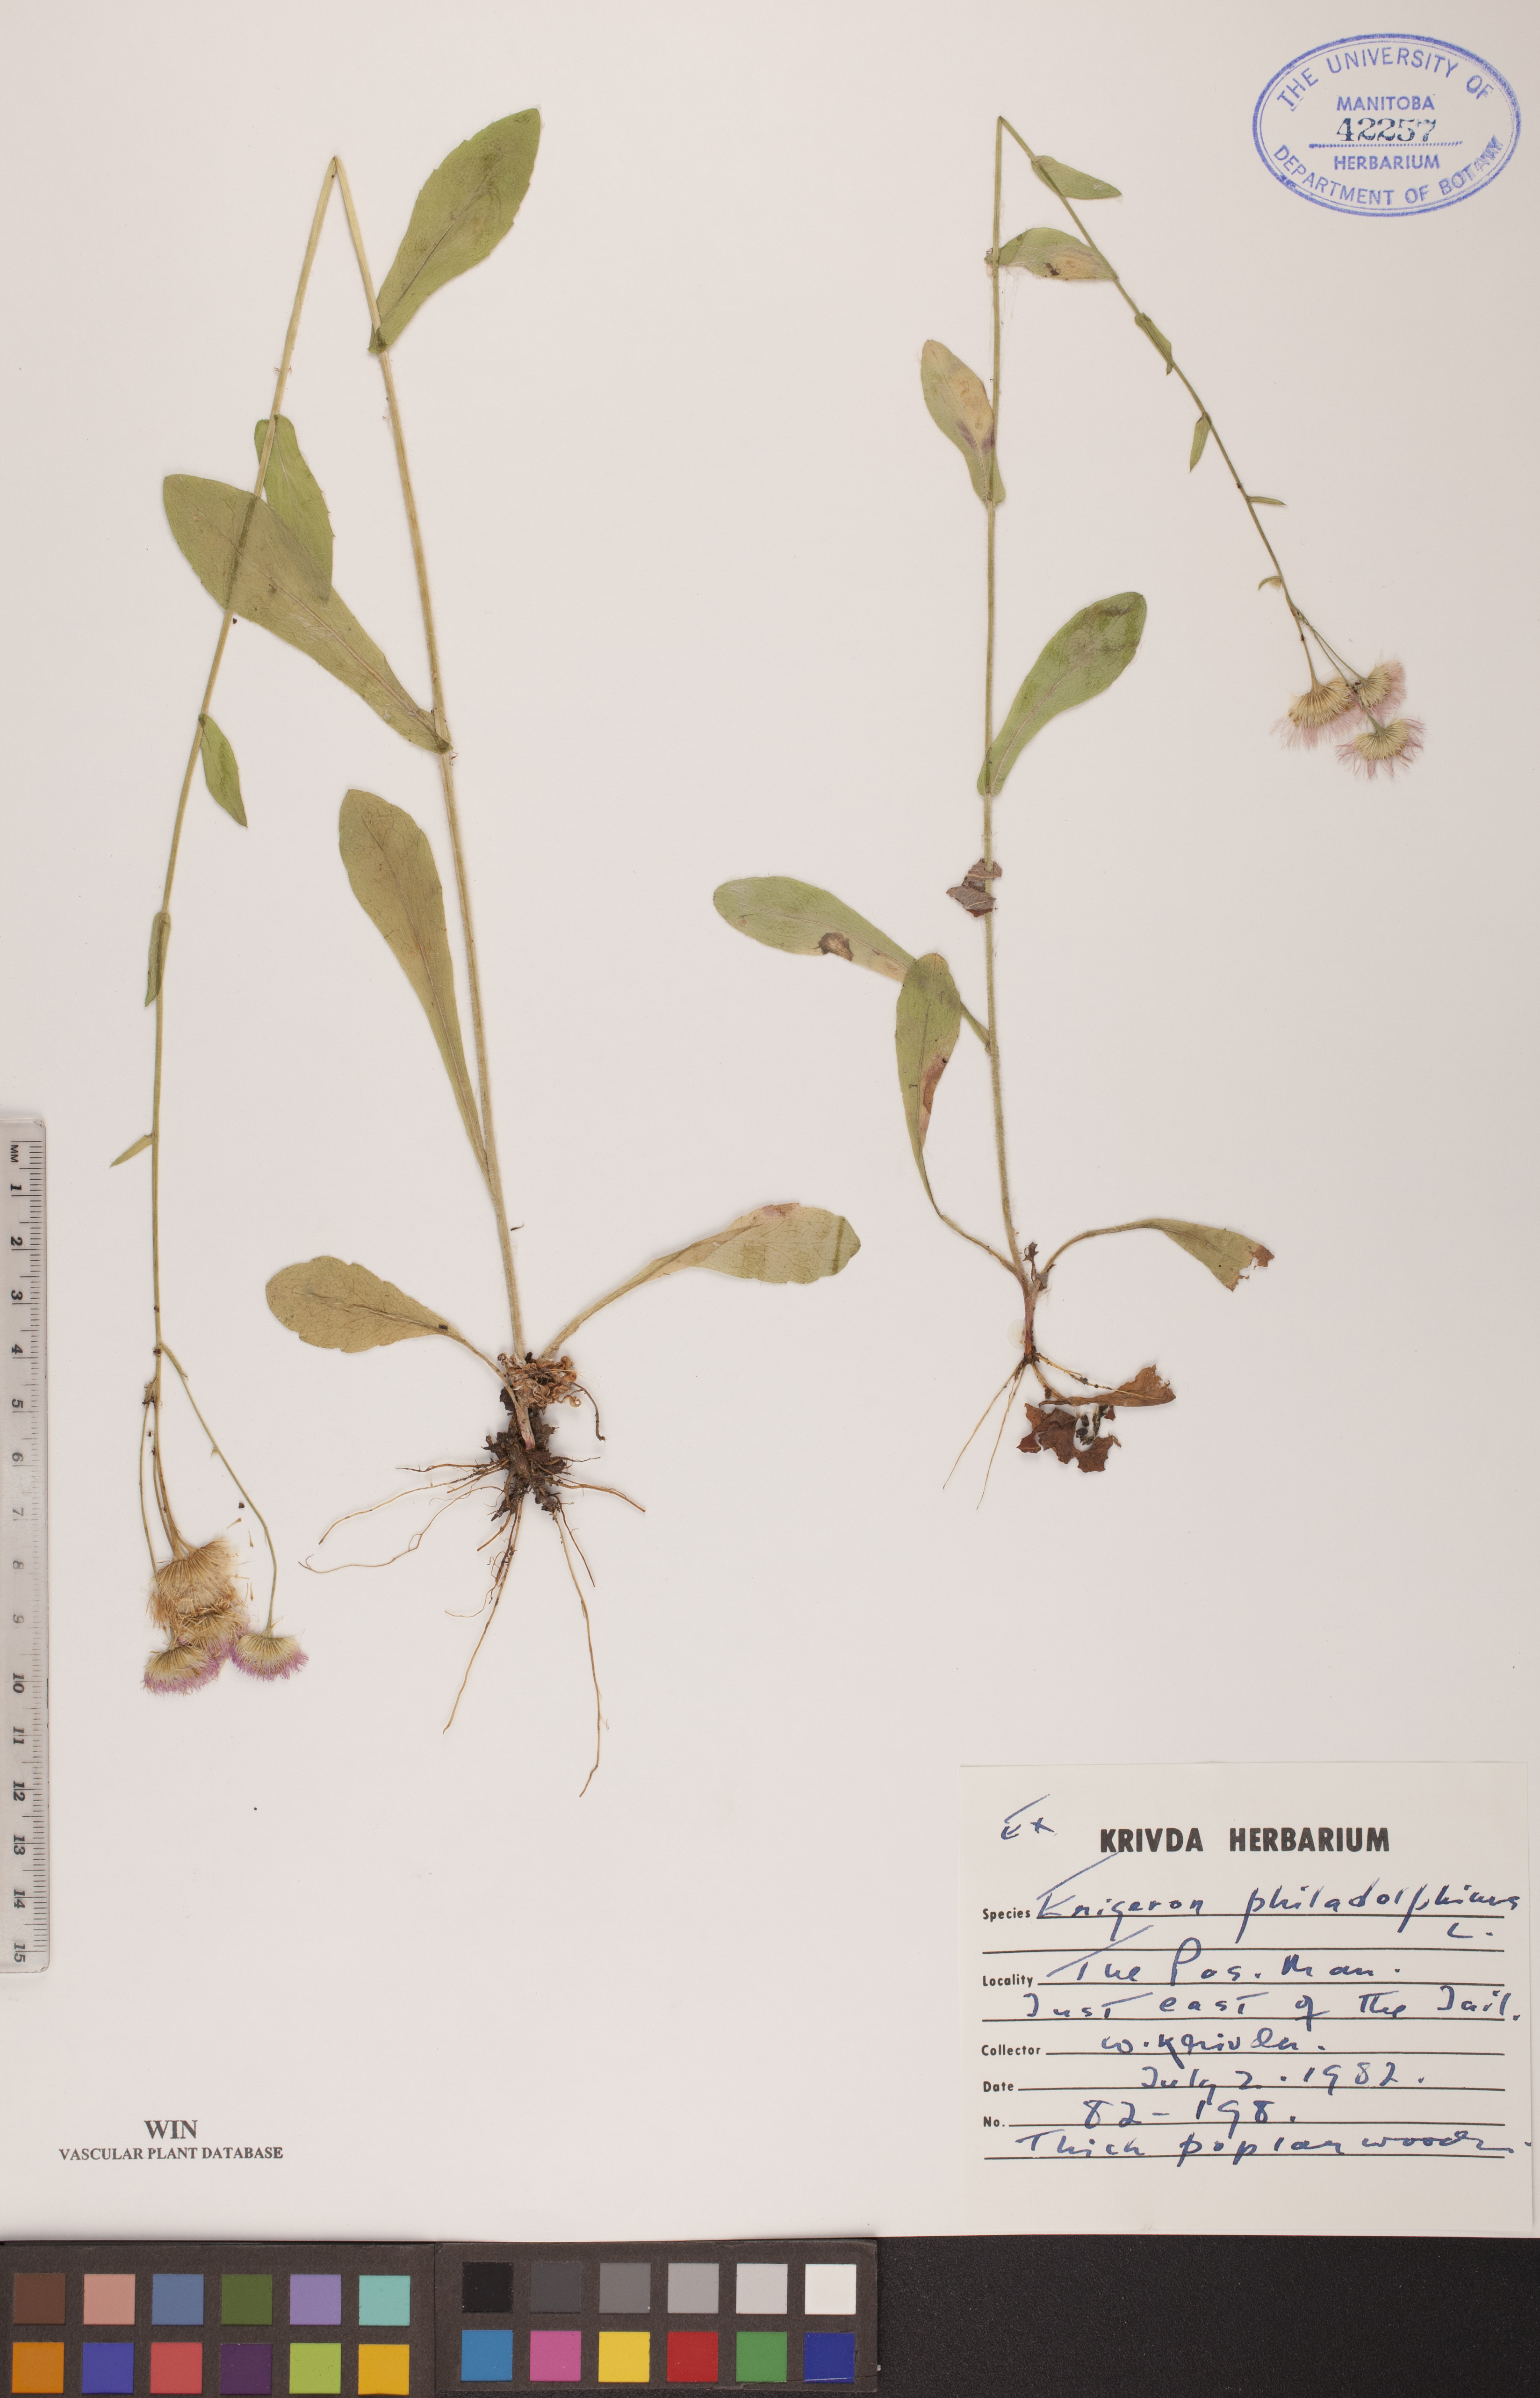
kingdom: Plantae
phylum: Tracheophyta
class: Magnoliopsida
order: Asterales
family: Asteraceae
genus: Erigeron
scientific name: Erigeron philadelphicus
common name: Robin's-plantain
